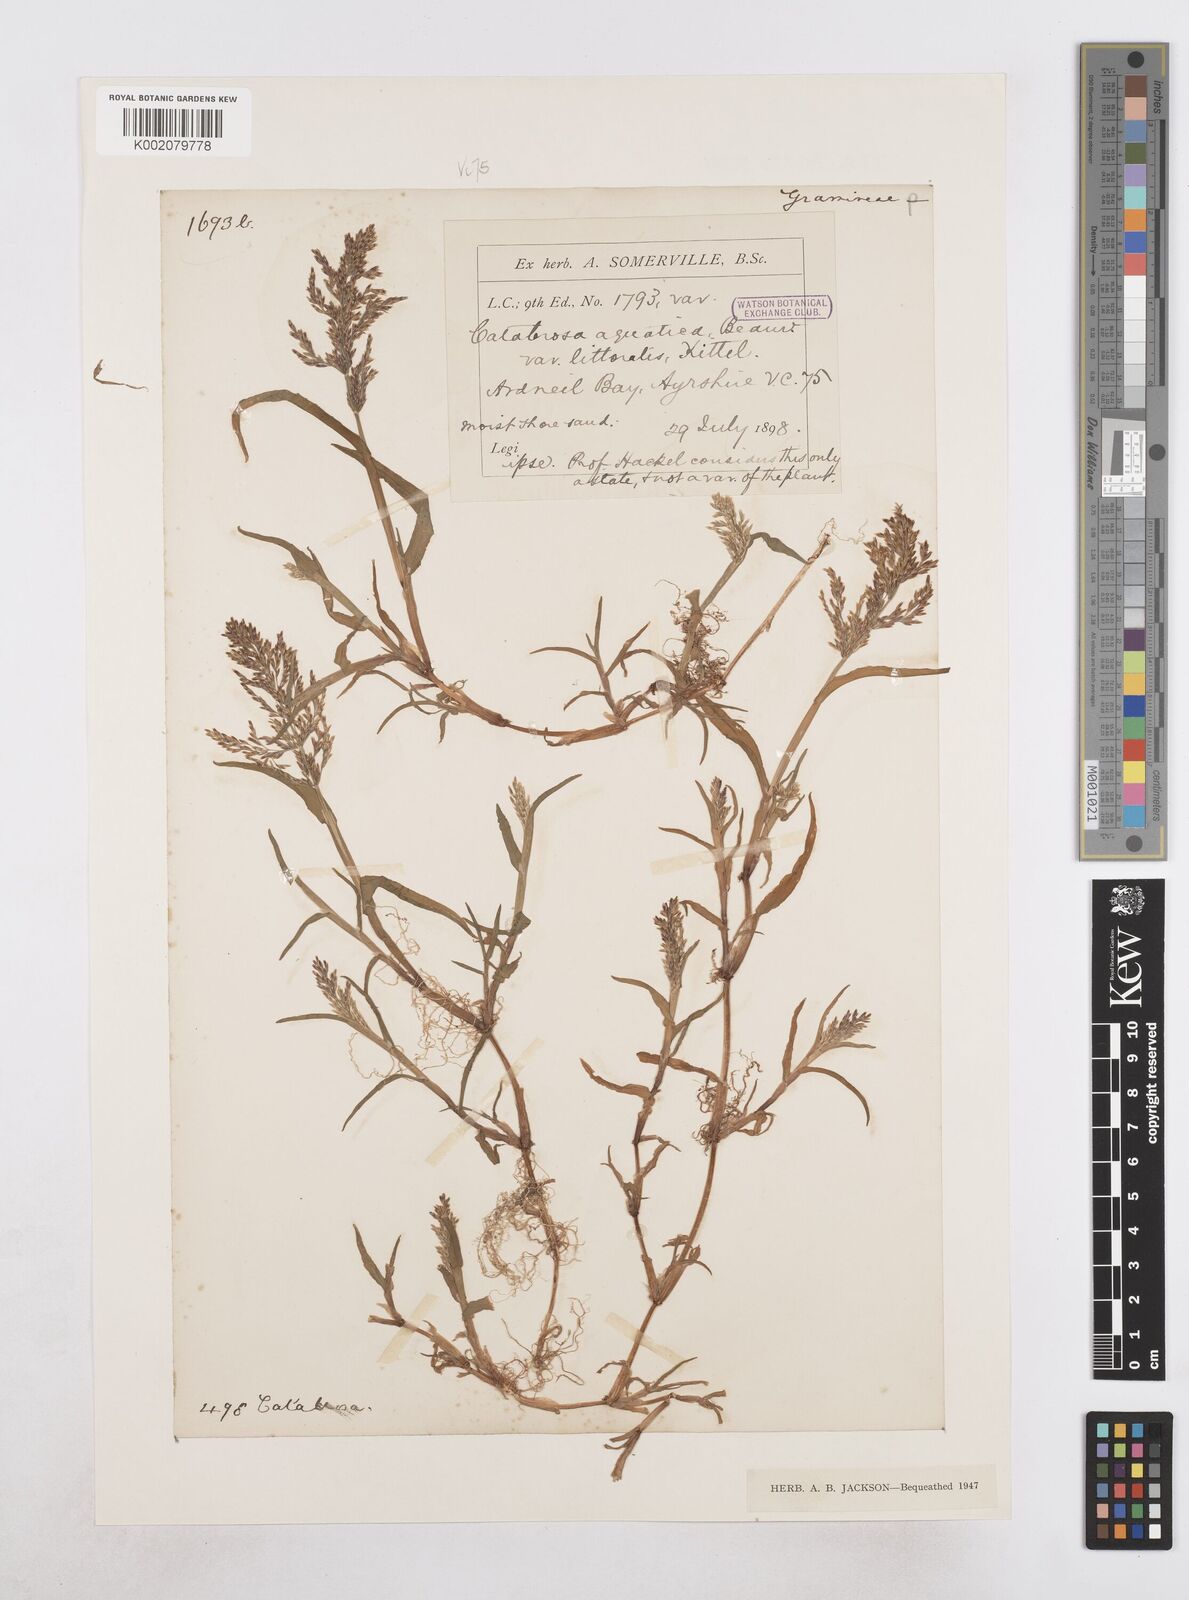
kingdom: Plantae
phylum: Tracheophyta
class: Liliopsida
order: Poales
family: Poaceae
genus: Catabrosa
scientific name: Catabrosa aquatica
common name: Whorl-grass
